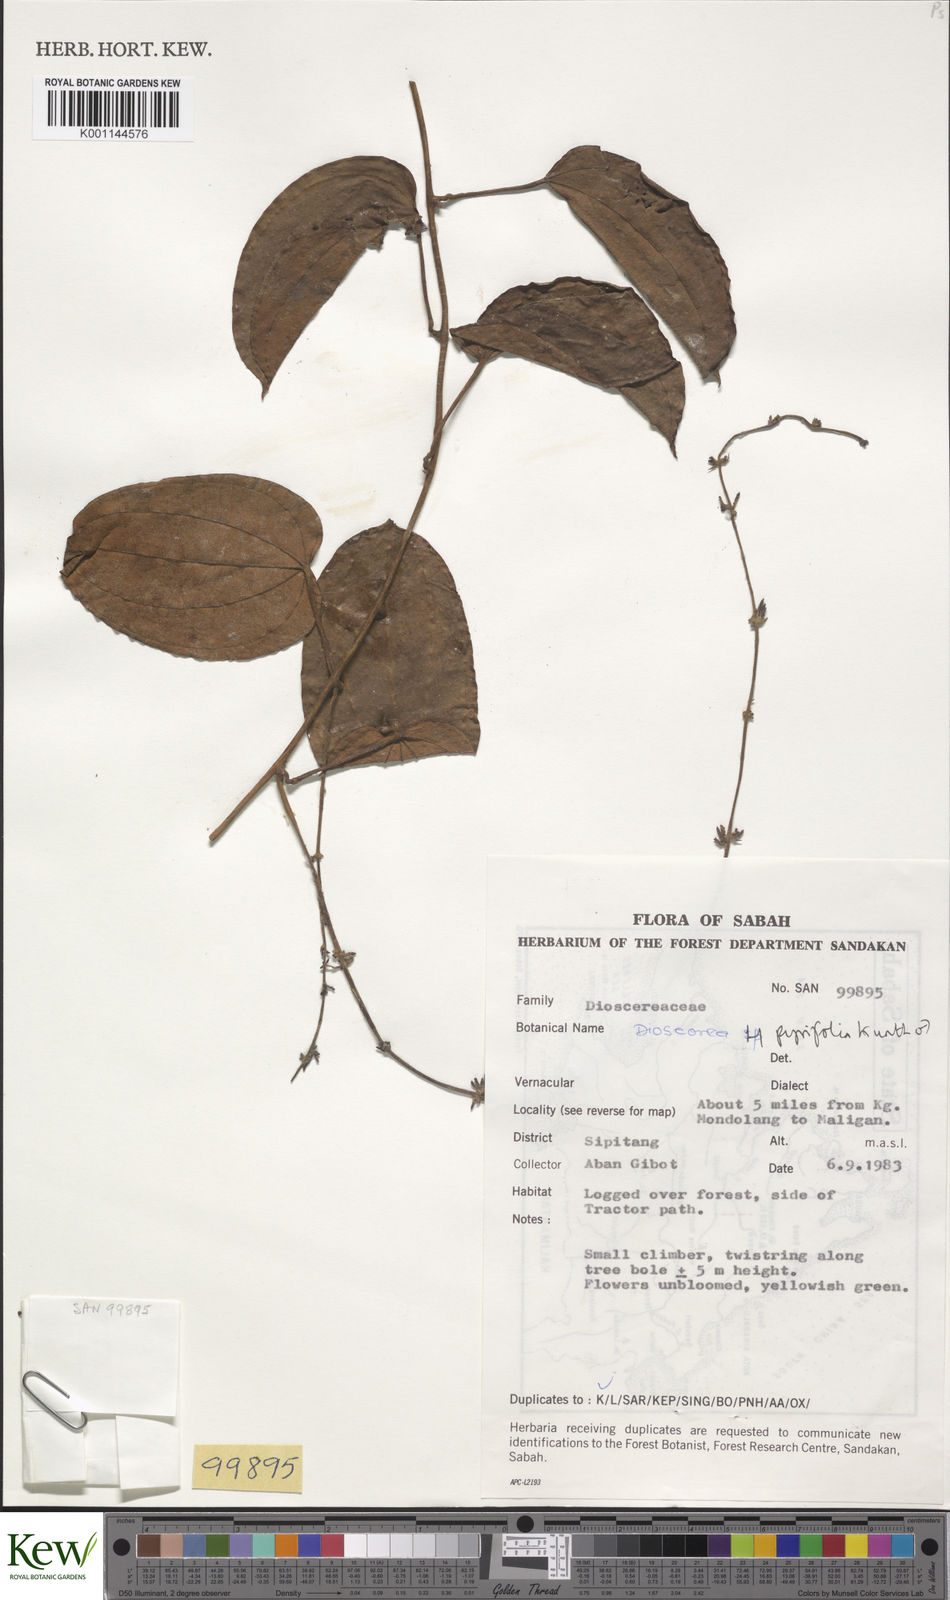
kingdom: Plantae
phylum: Tracheophyta
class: Liliopsida
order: Dioscoreales
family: Dioscoreaceae
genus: Dioscorea
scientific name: Dioscorea pyrifolia
